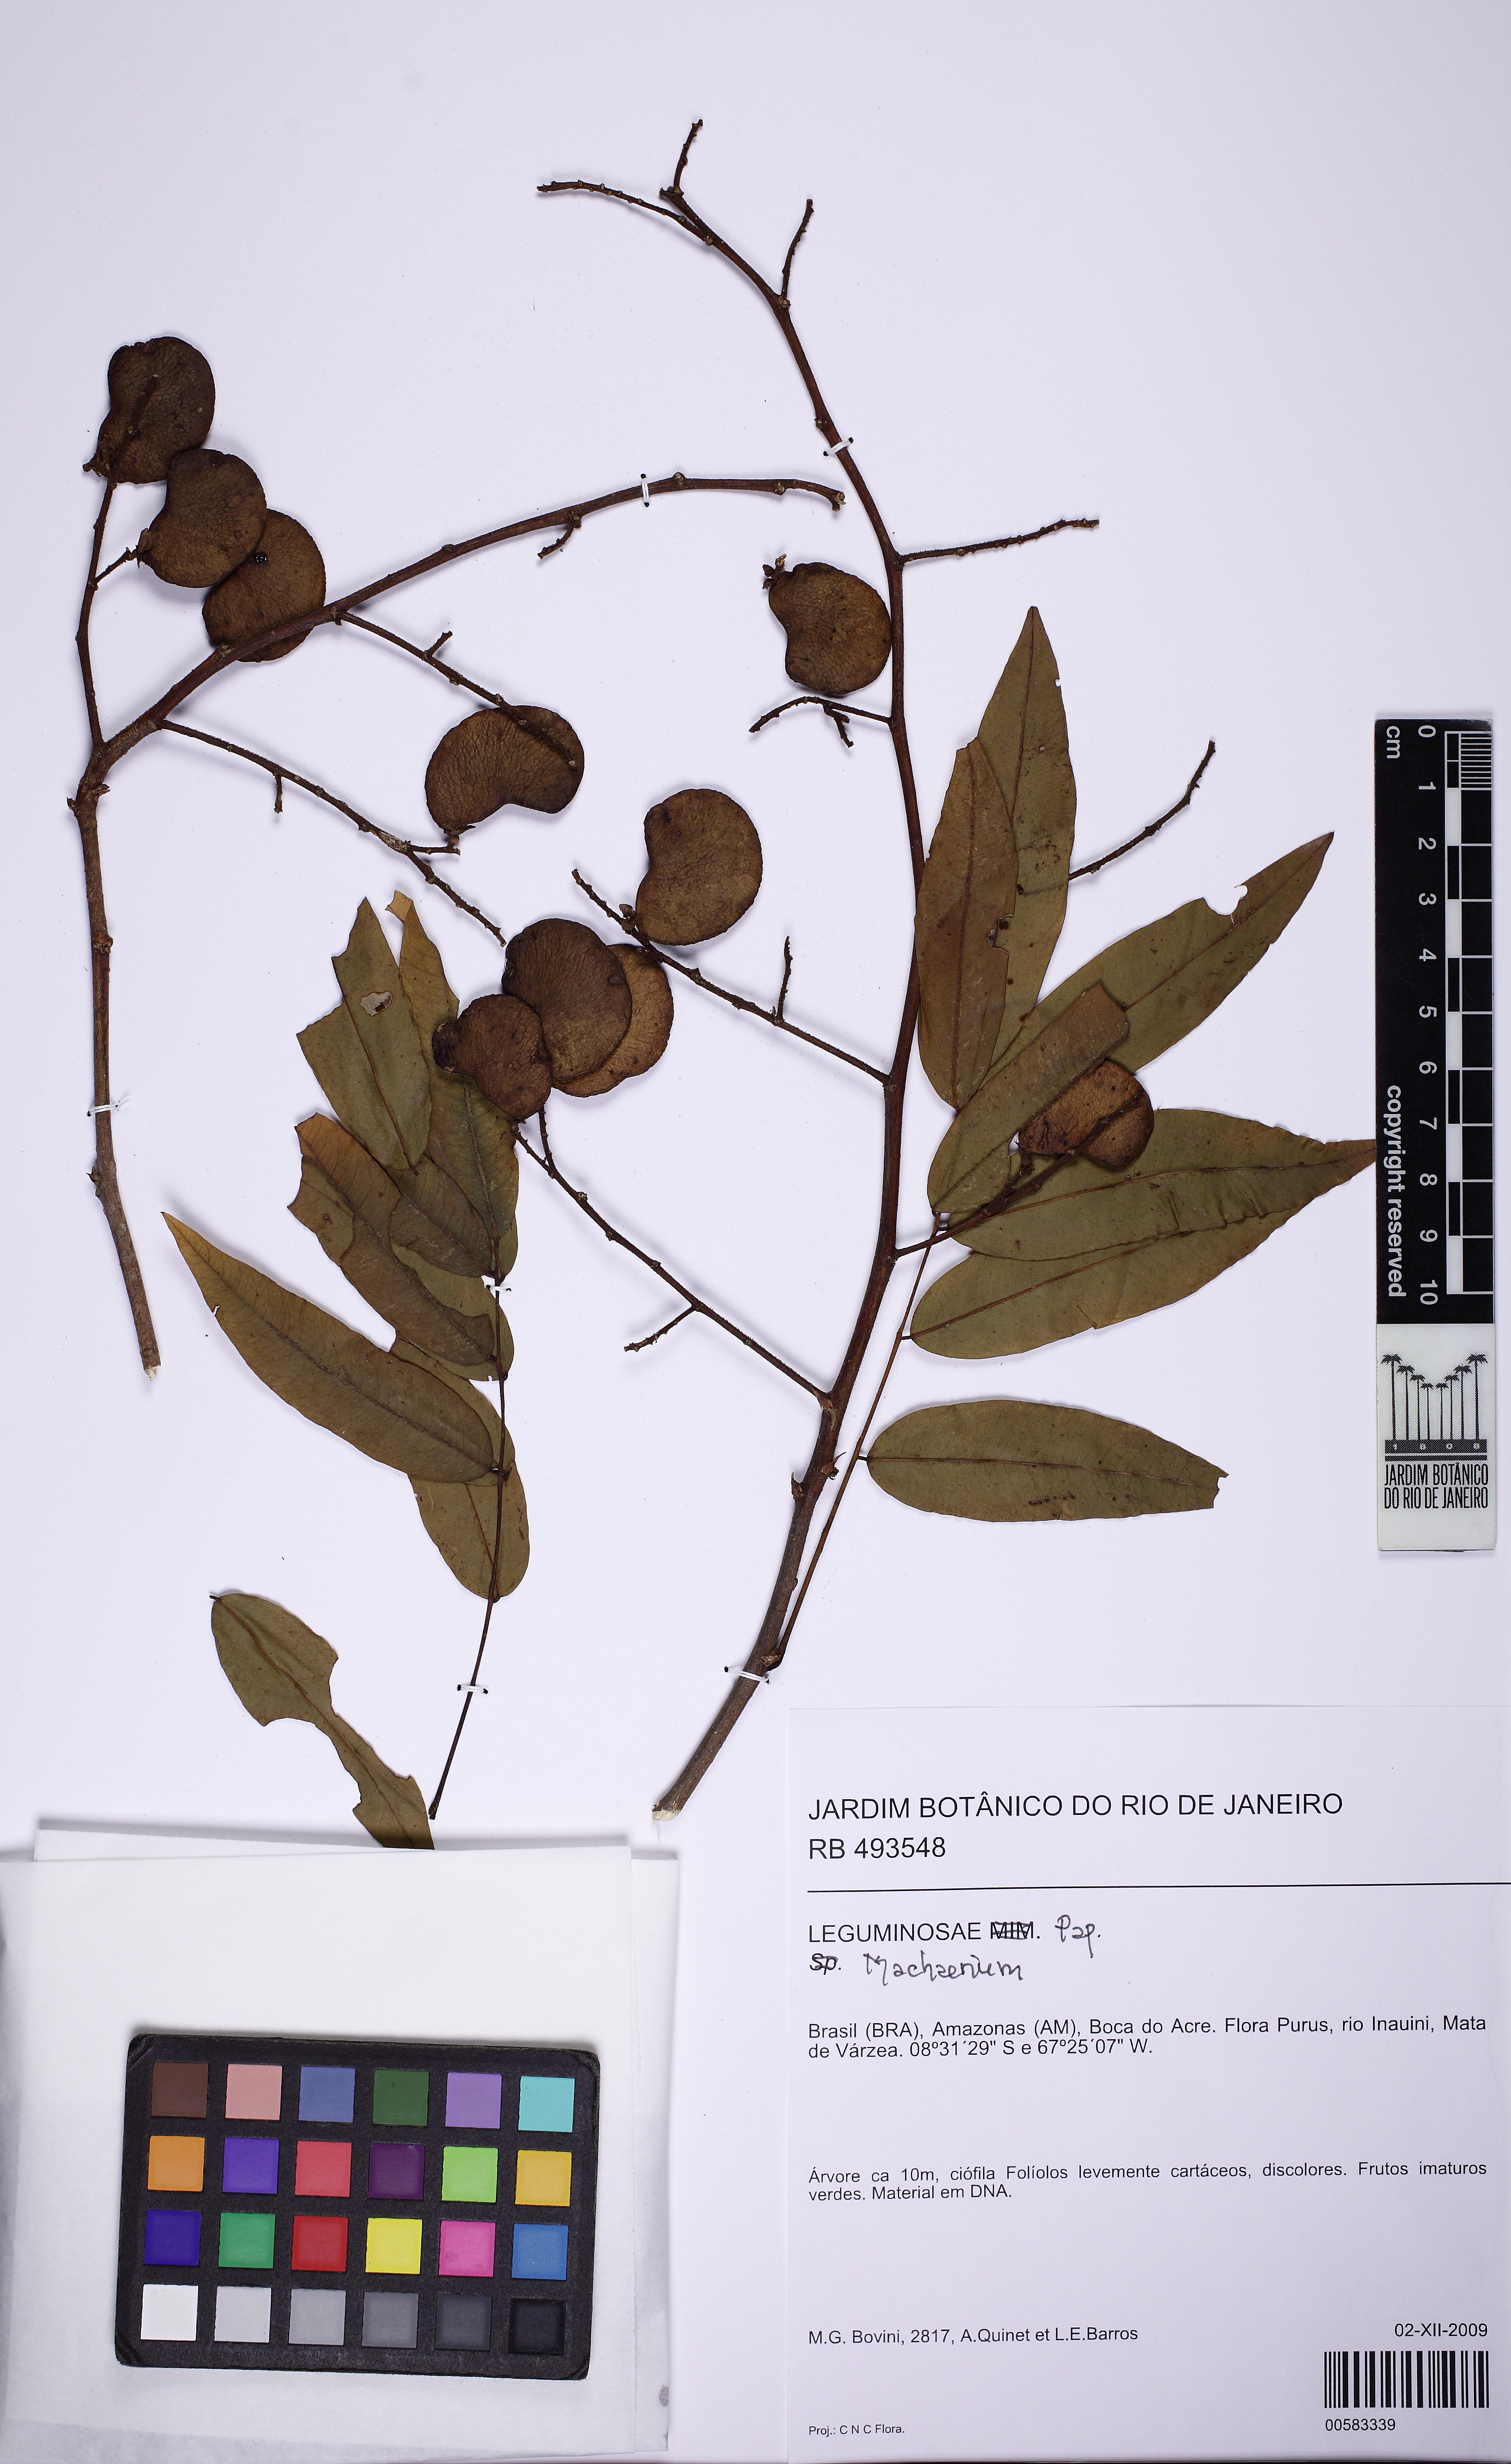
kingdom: Plantae
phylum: Tracheophyta
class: Magnoliopsida
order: Fabales
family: Fabaceae
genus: Machaerium
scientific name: Machaerium leiophyllum
